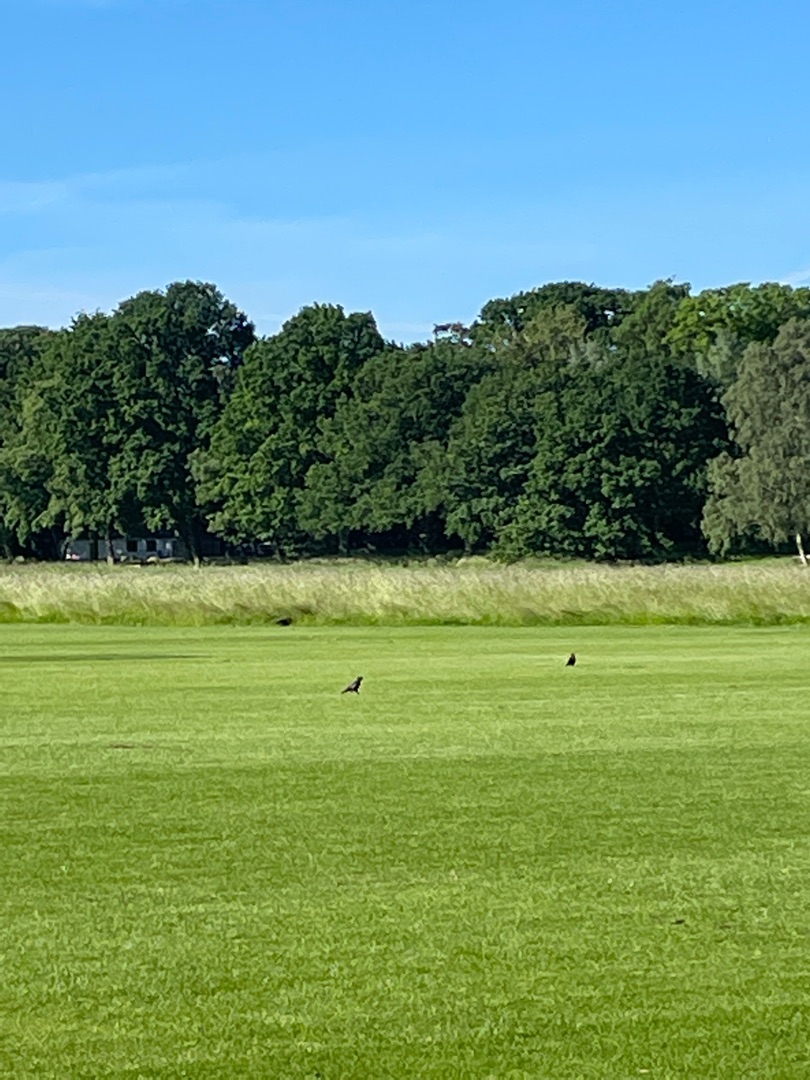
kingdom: Animalia
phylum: Chordata
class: Aves
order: Passeriformes
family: Corvidae
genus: Coloeus
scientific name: Coloeus monedula
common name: Allike
